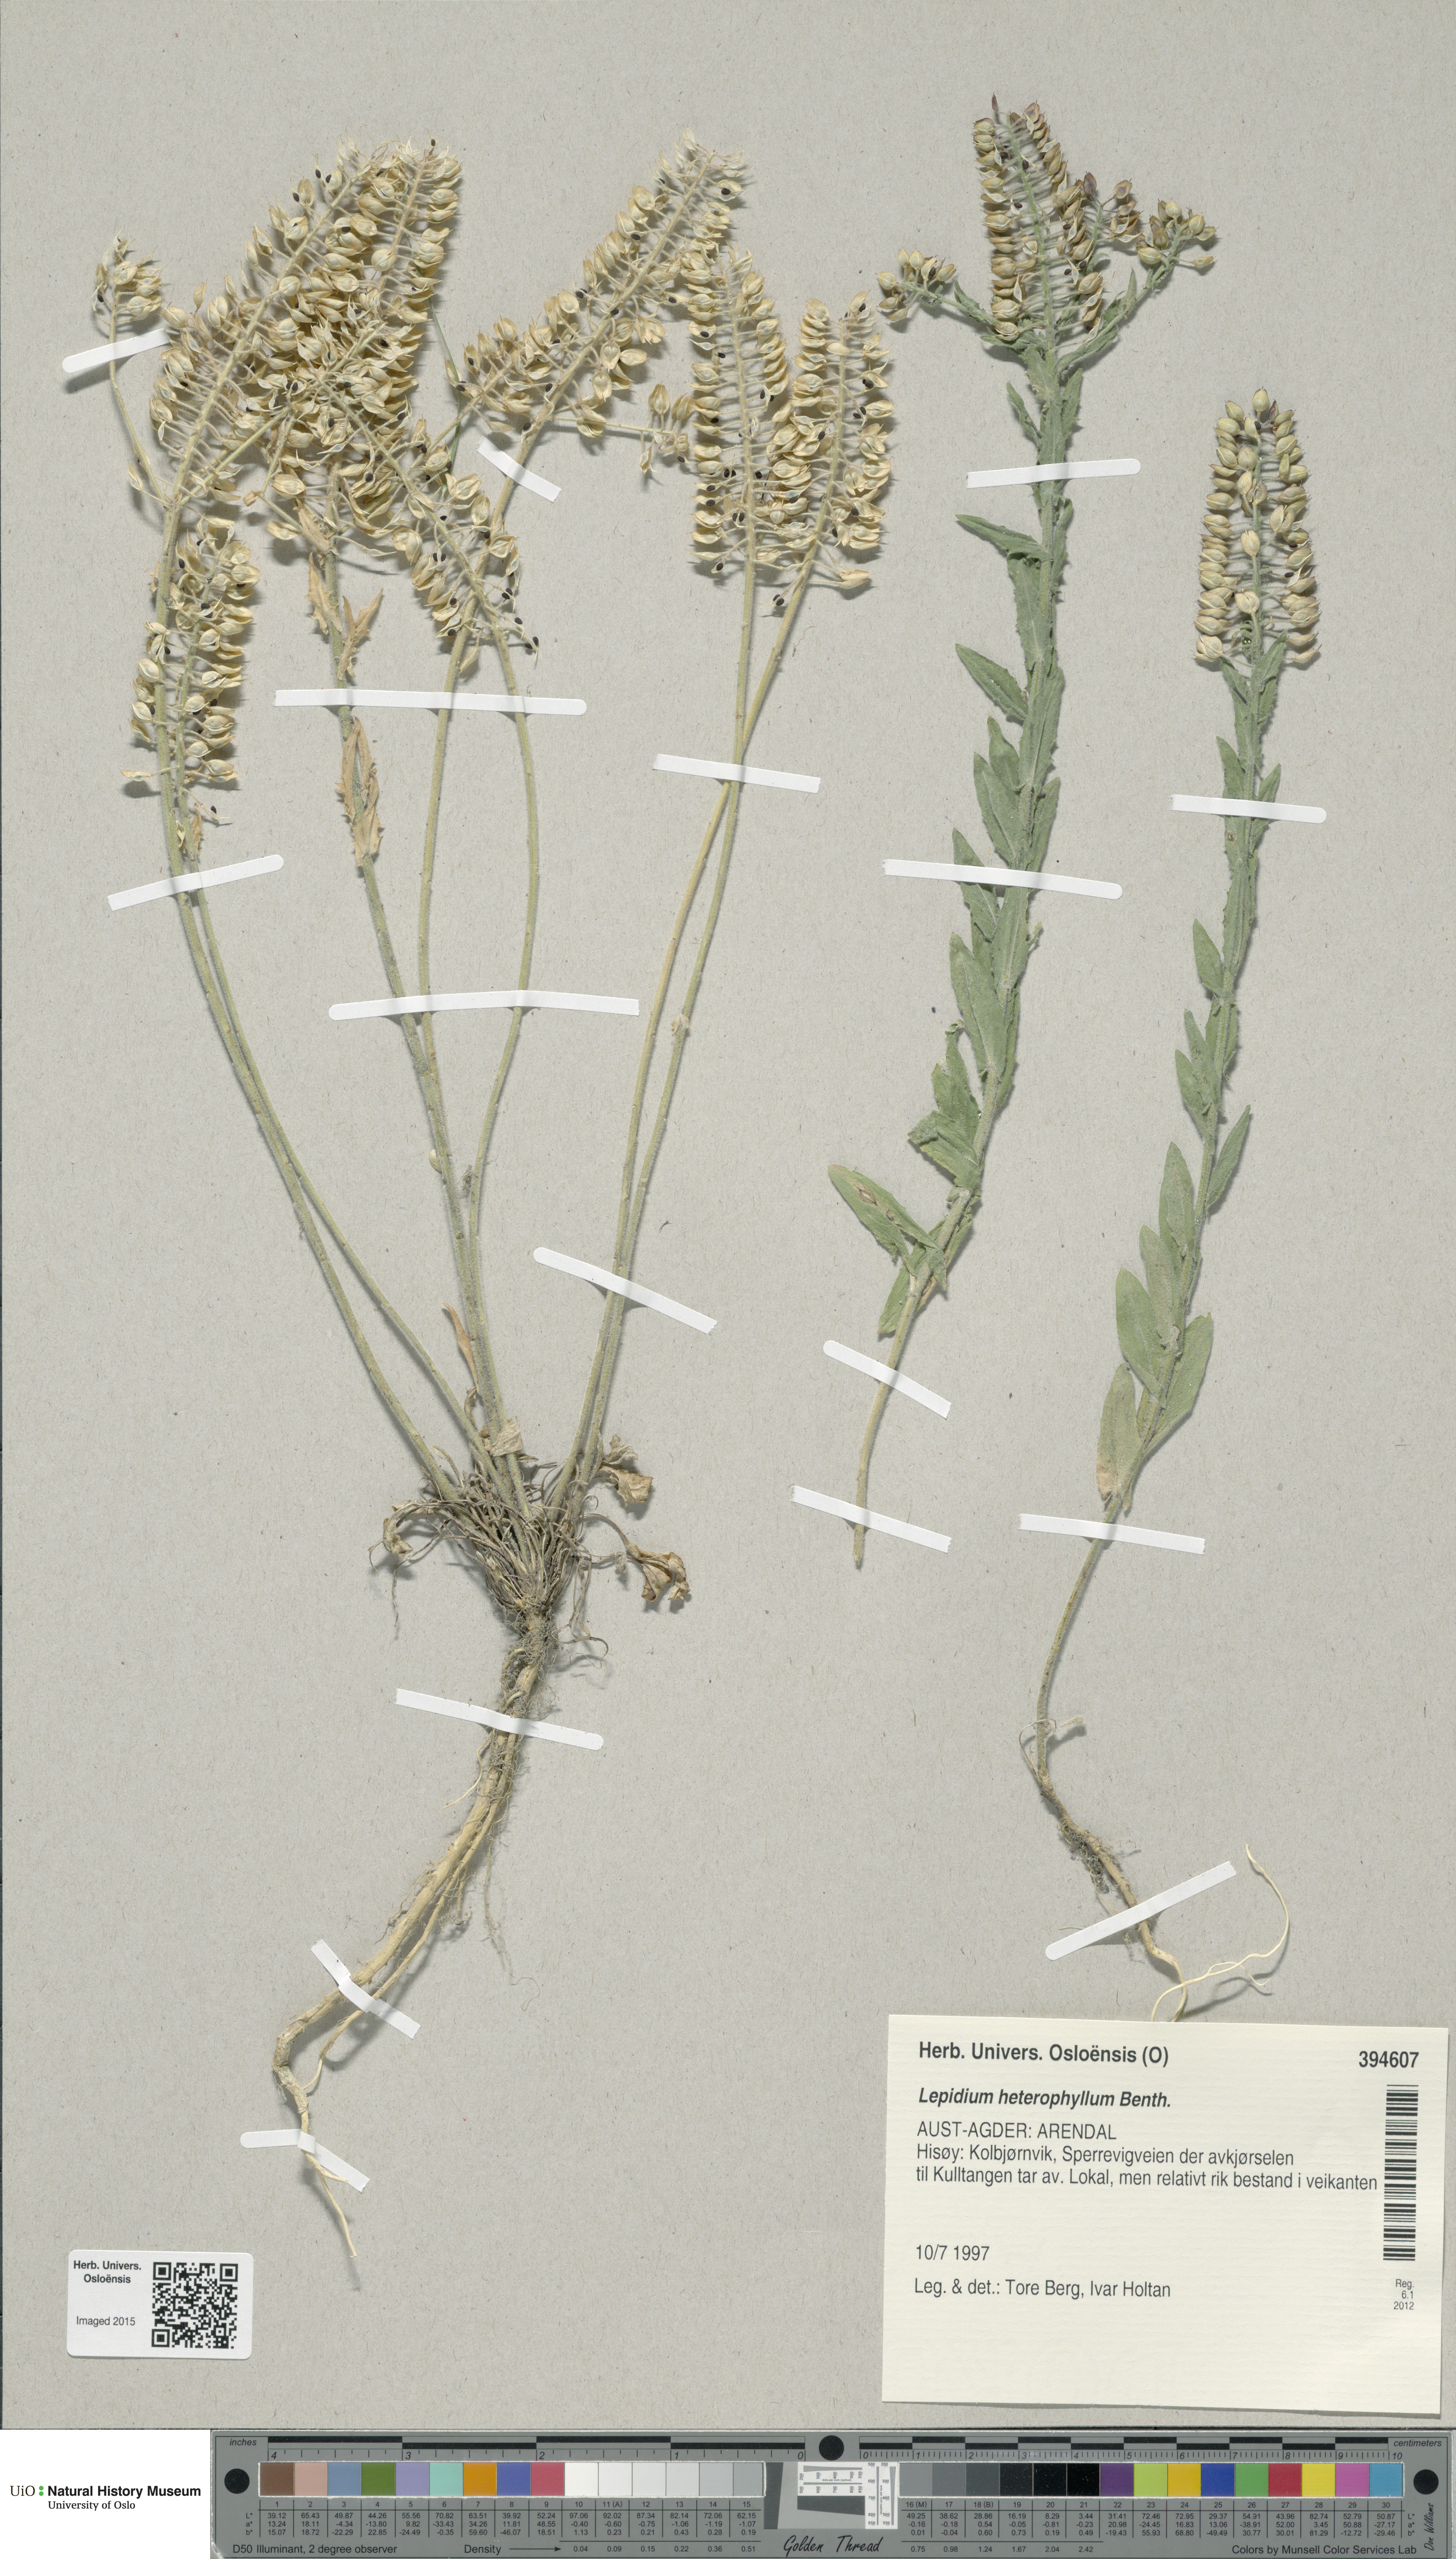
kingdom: Plantae
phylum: Tracheophyta
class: Magnoliopsida
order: Brassicales
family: Brassicaceae
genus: Lepidium
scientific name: Lepidium heterophyllum
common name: Smith's pepperwort
